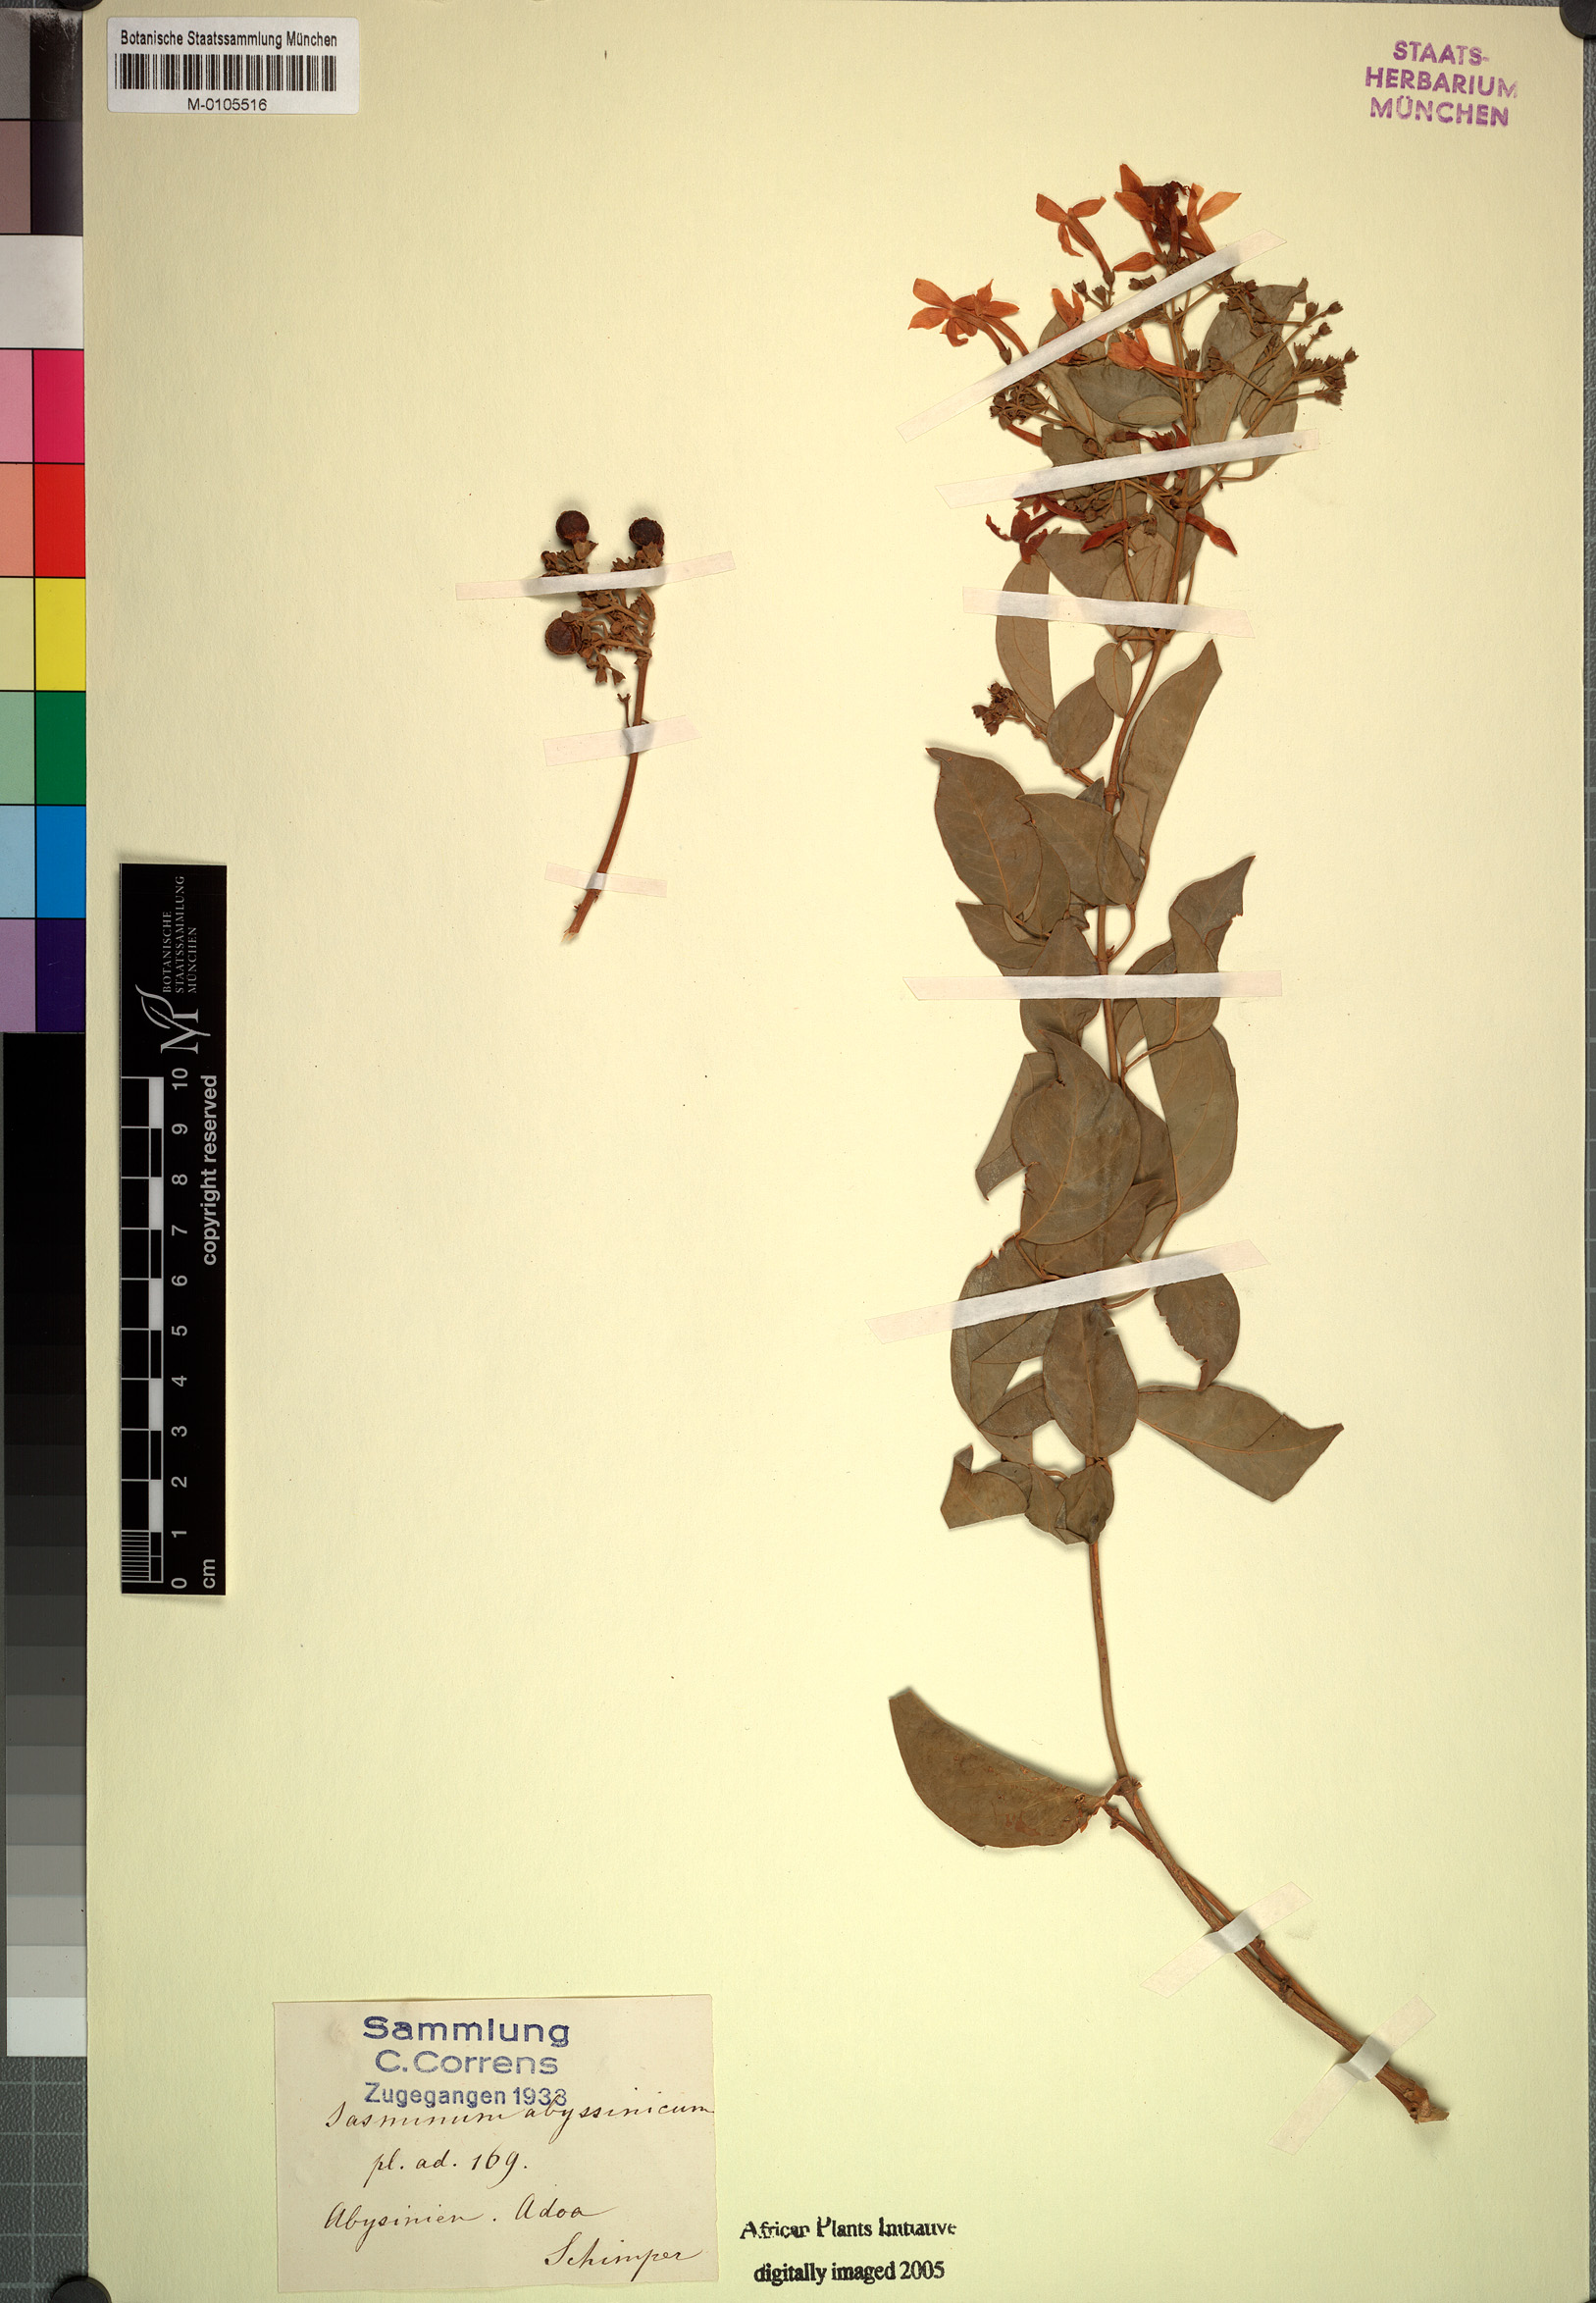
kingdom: Plantae
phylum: Tracheophyta
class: Magnoliopsida
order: Lamiales
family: Oleaceae
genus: Jasminum
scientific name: Jasminum abyssinicum
